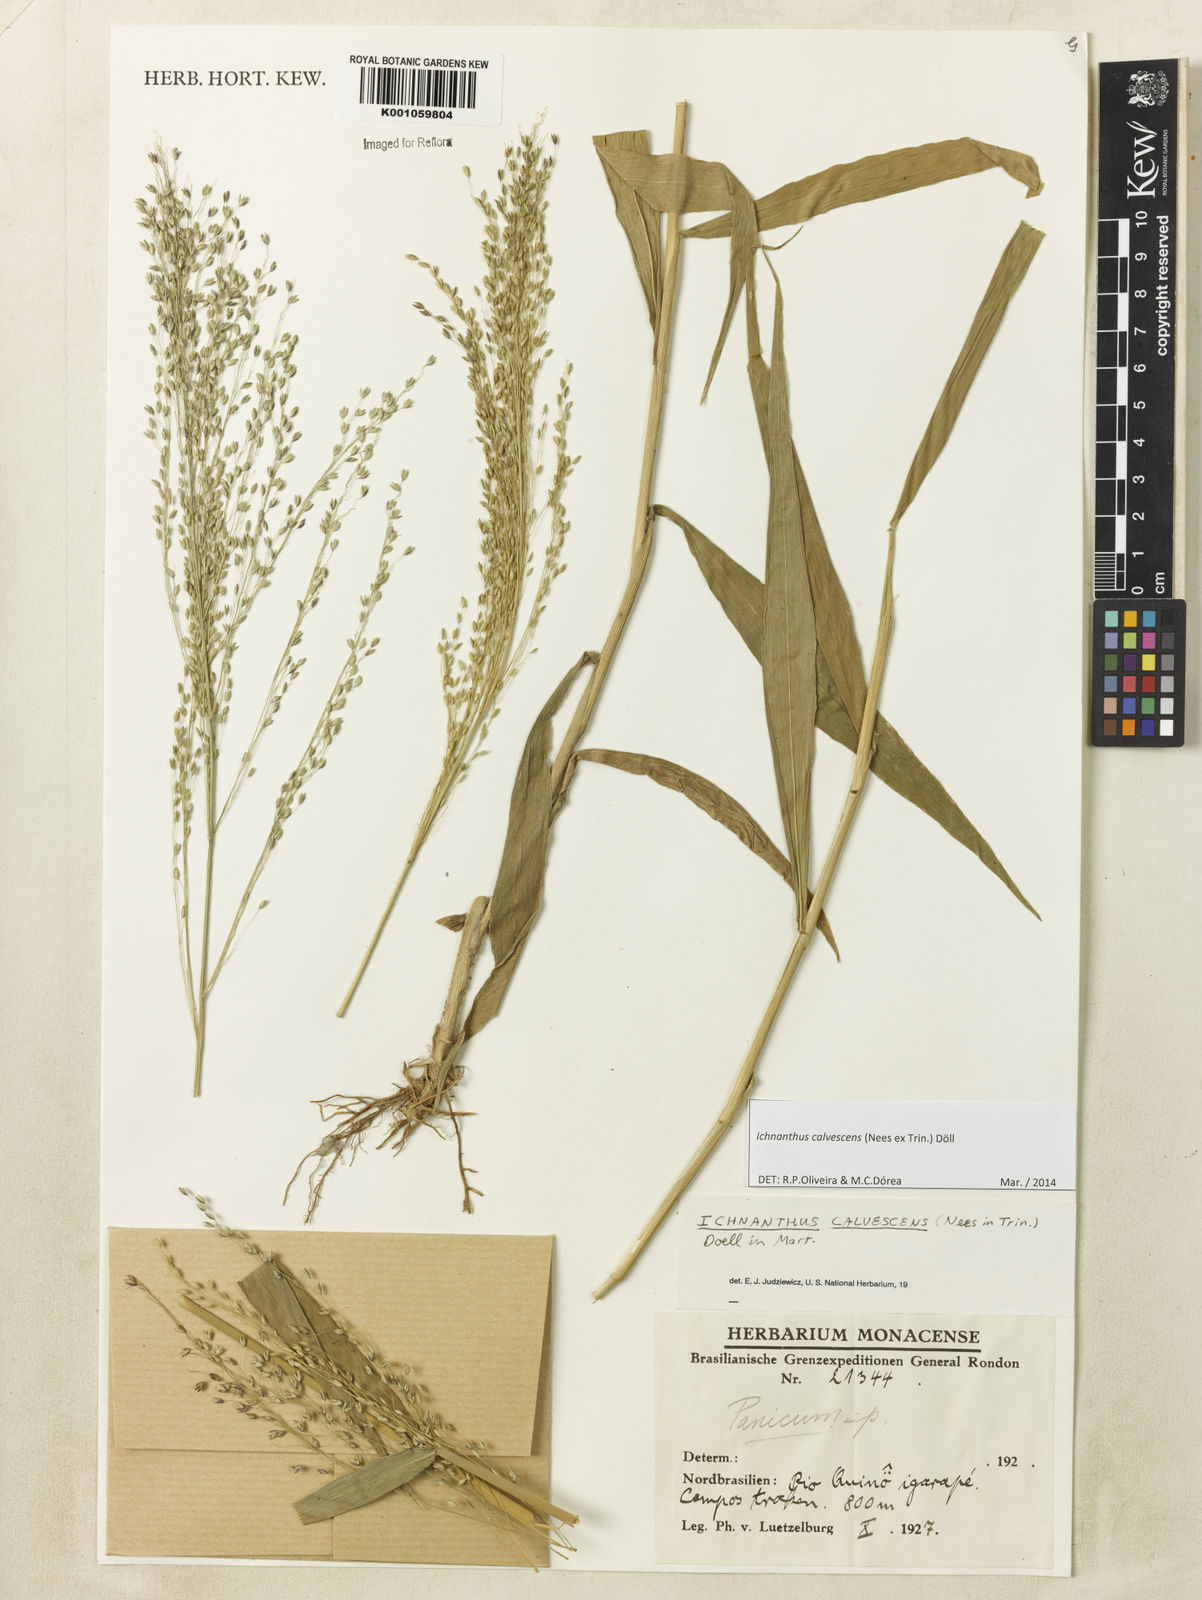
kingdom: Plantae
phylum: Tracheophyta
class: Liliopsida
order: Poales
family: Poaceae
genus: Ichnanthus
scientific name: Ichnanthus
